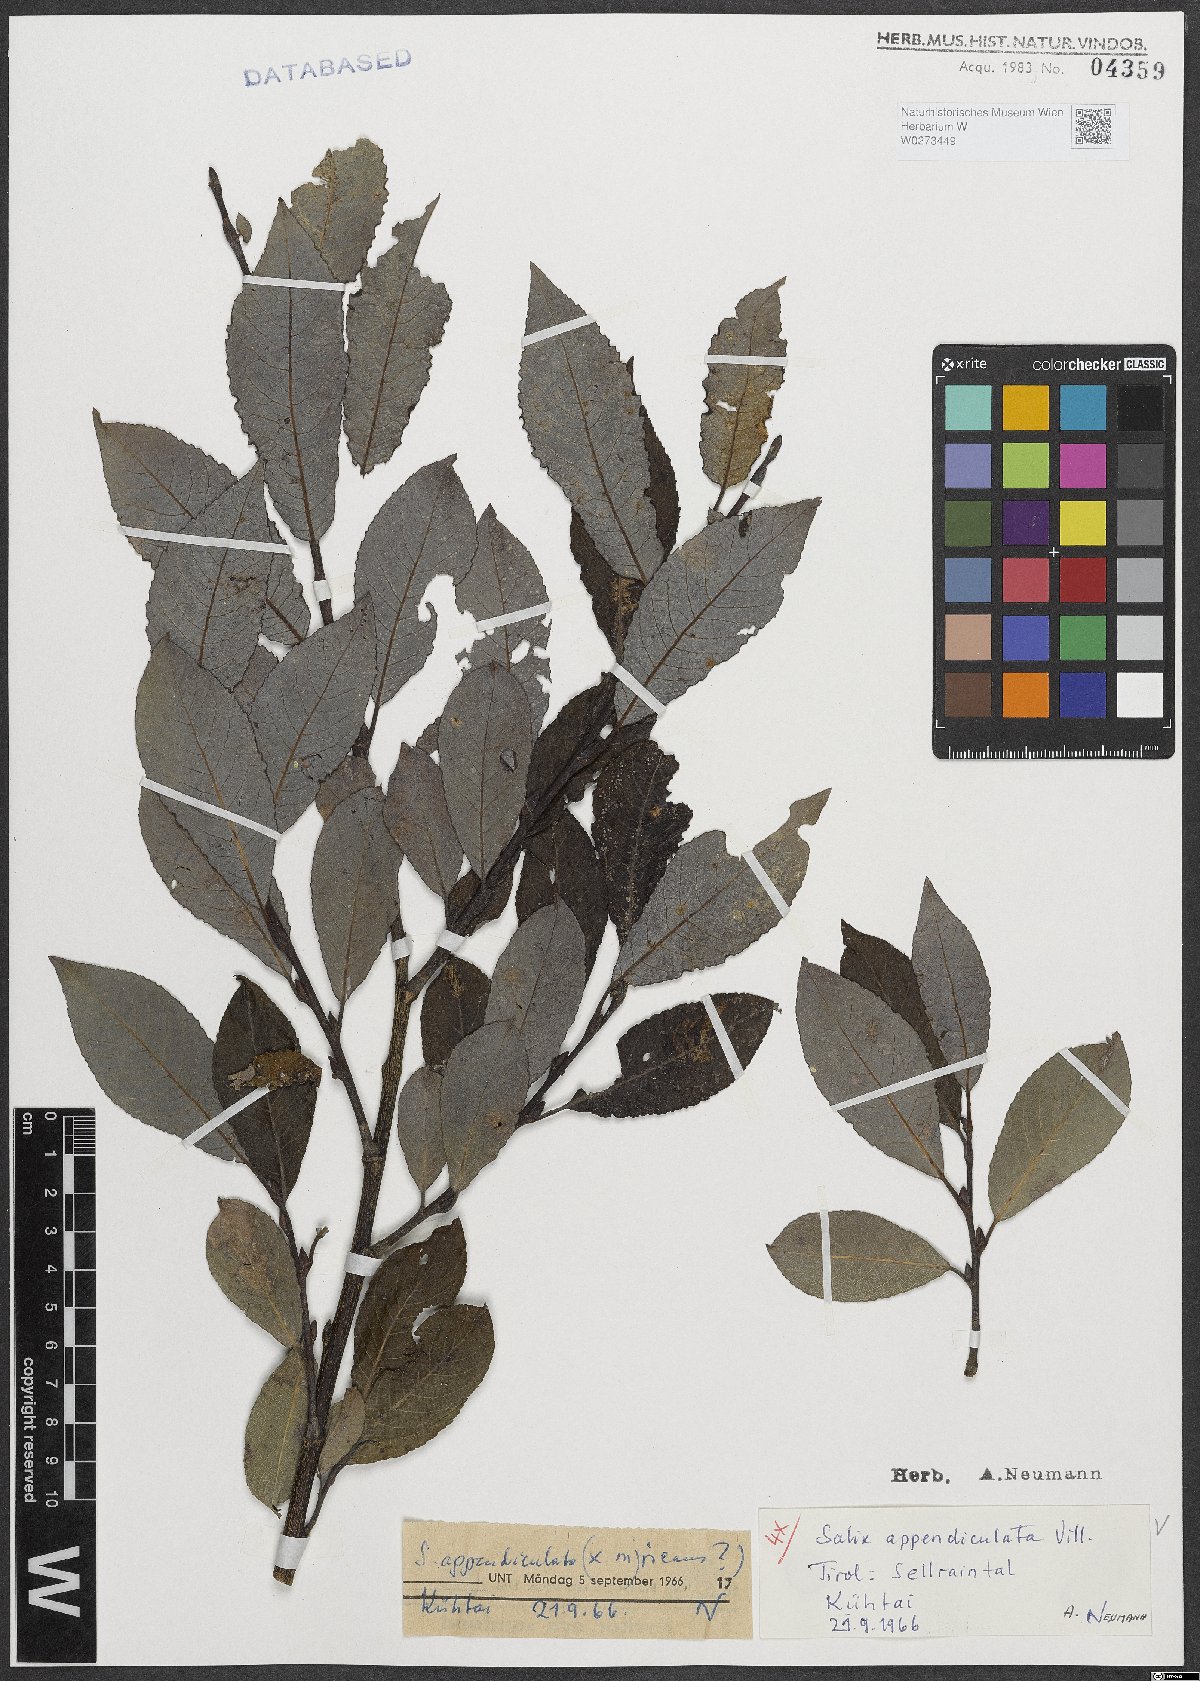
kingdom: Plantae
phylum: Tracheophyta
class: Magnoliopsida
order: Malpighiales
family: Salicaceae
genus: Salix
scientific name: Salix appendiculata
